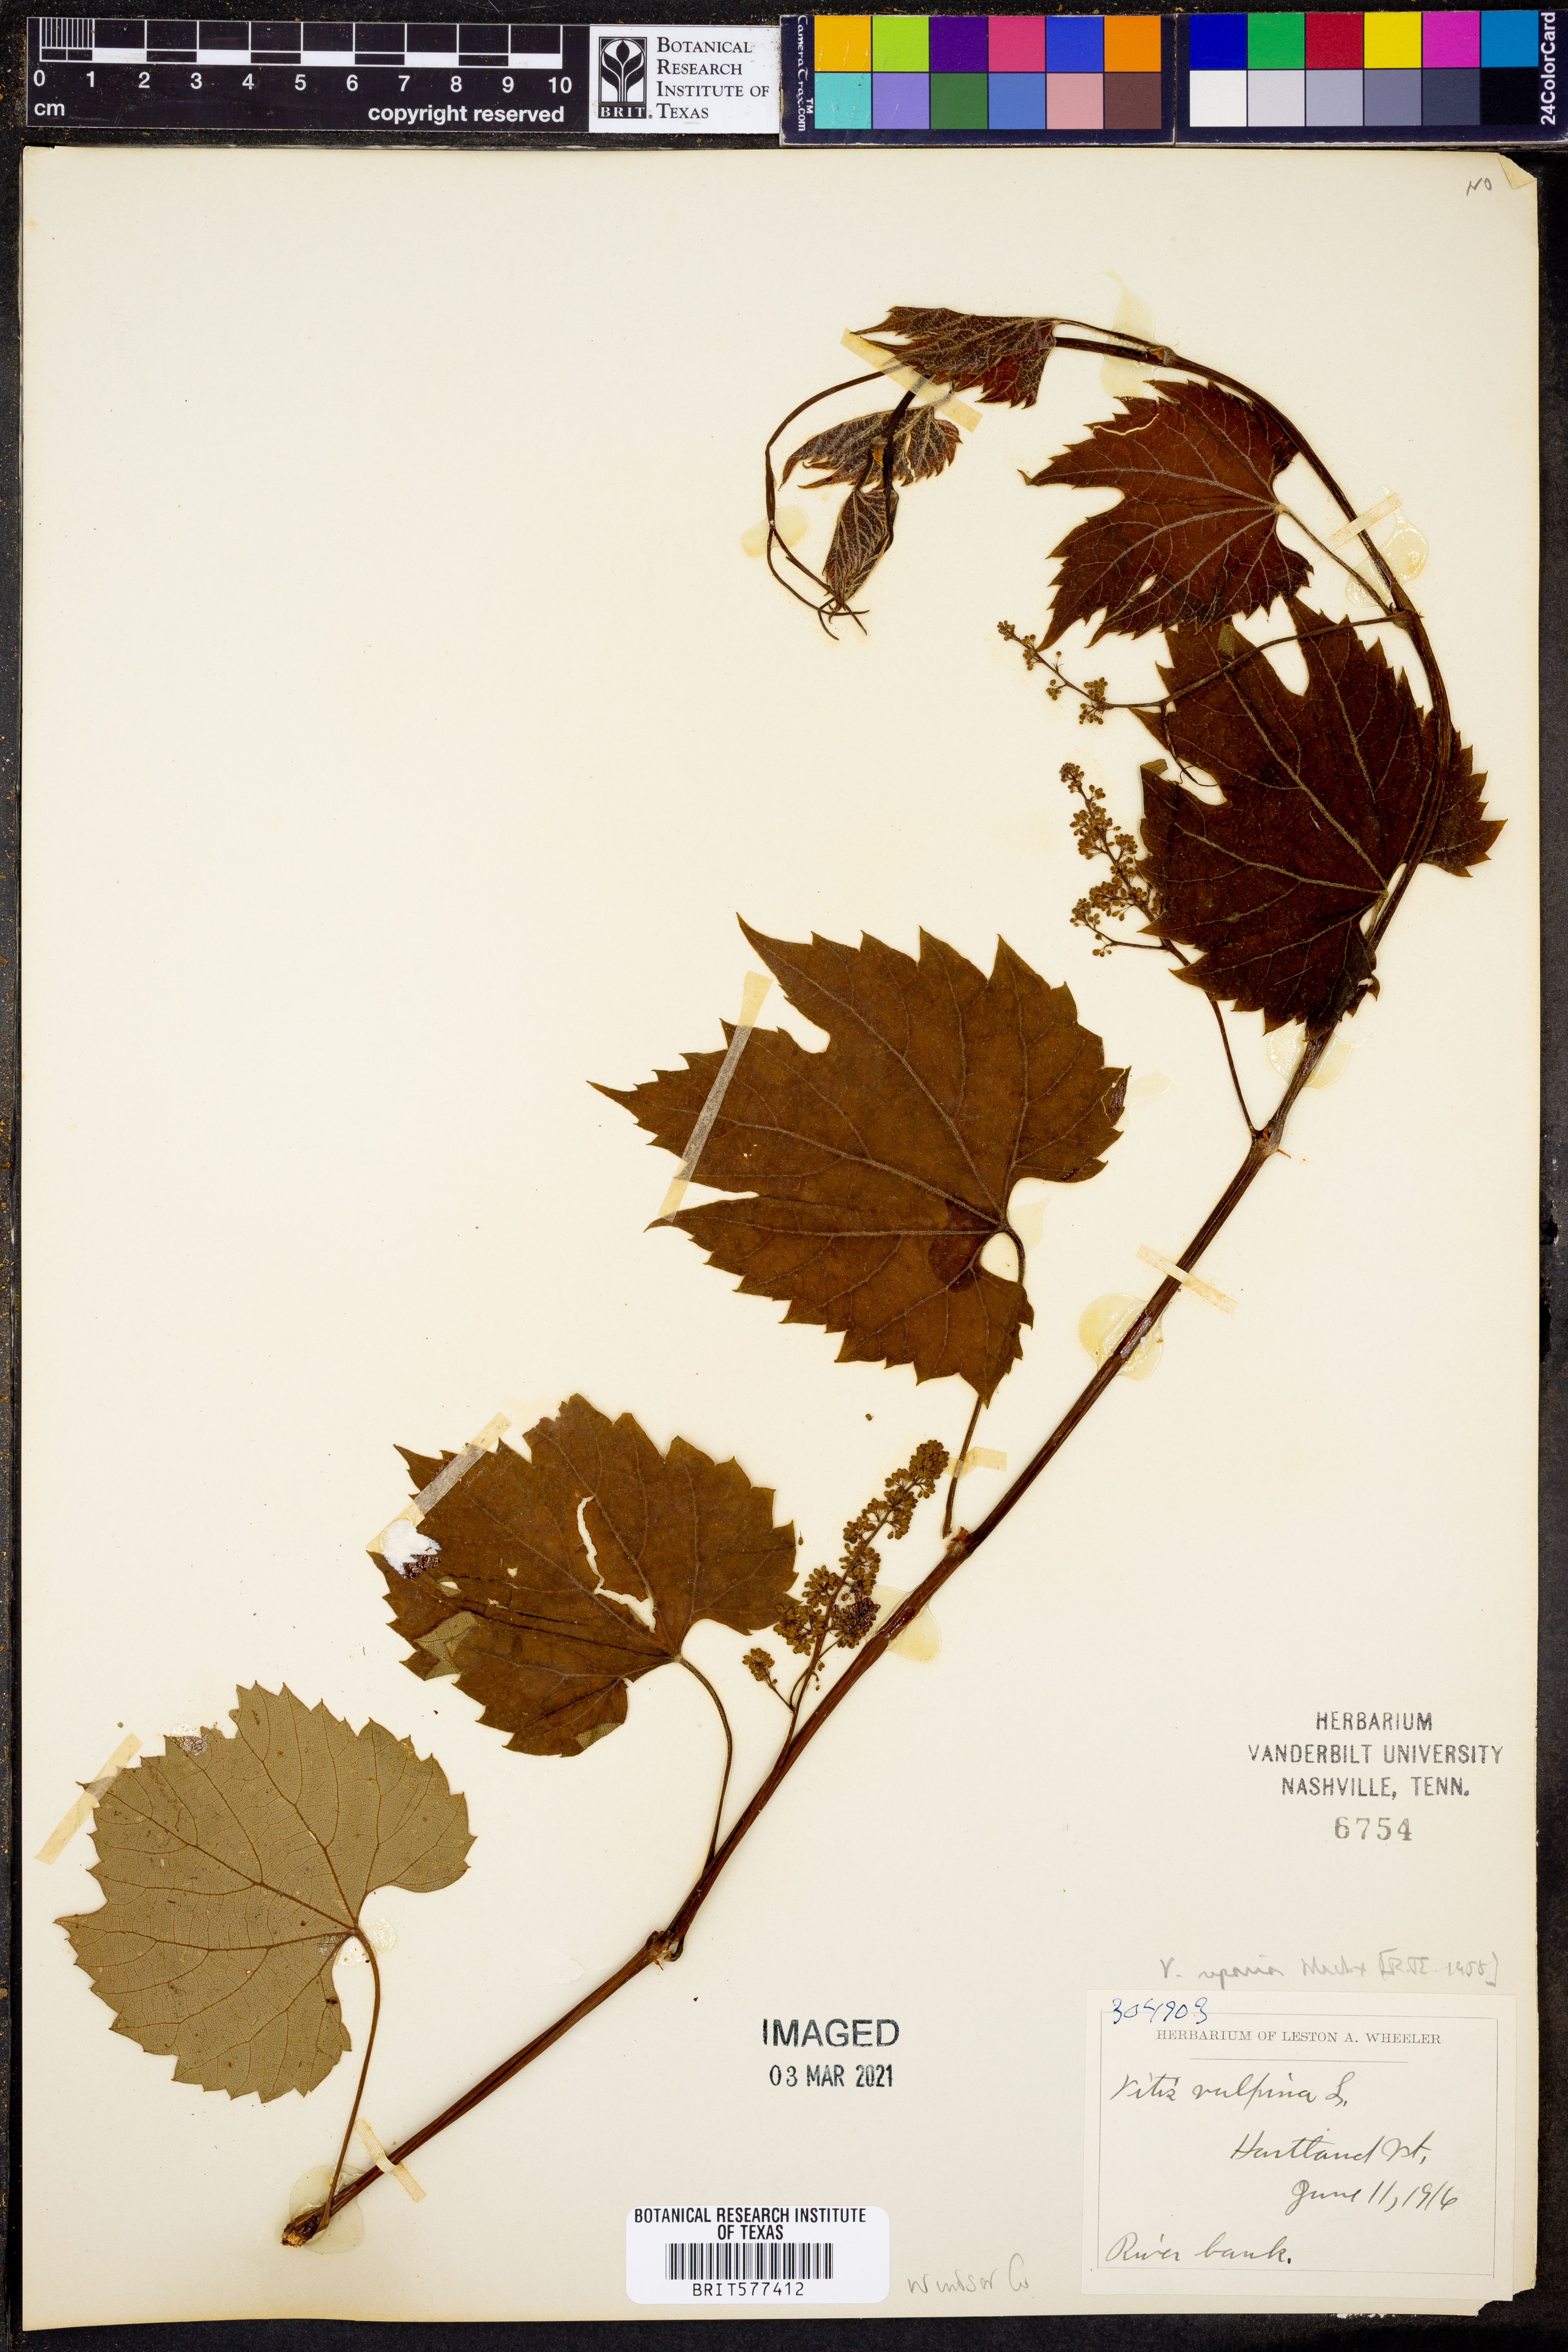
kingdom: Plantae
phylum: Tracheophyta
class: Magnoliopsida
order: Vitales
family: Vitaceae
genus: Vitis
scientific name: Vitis riparia
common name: Frost grape
